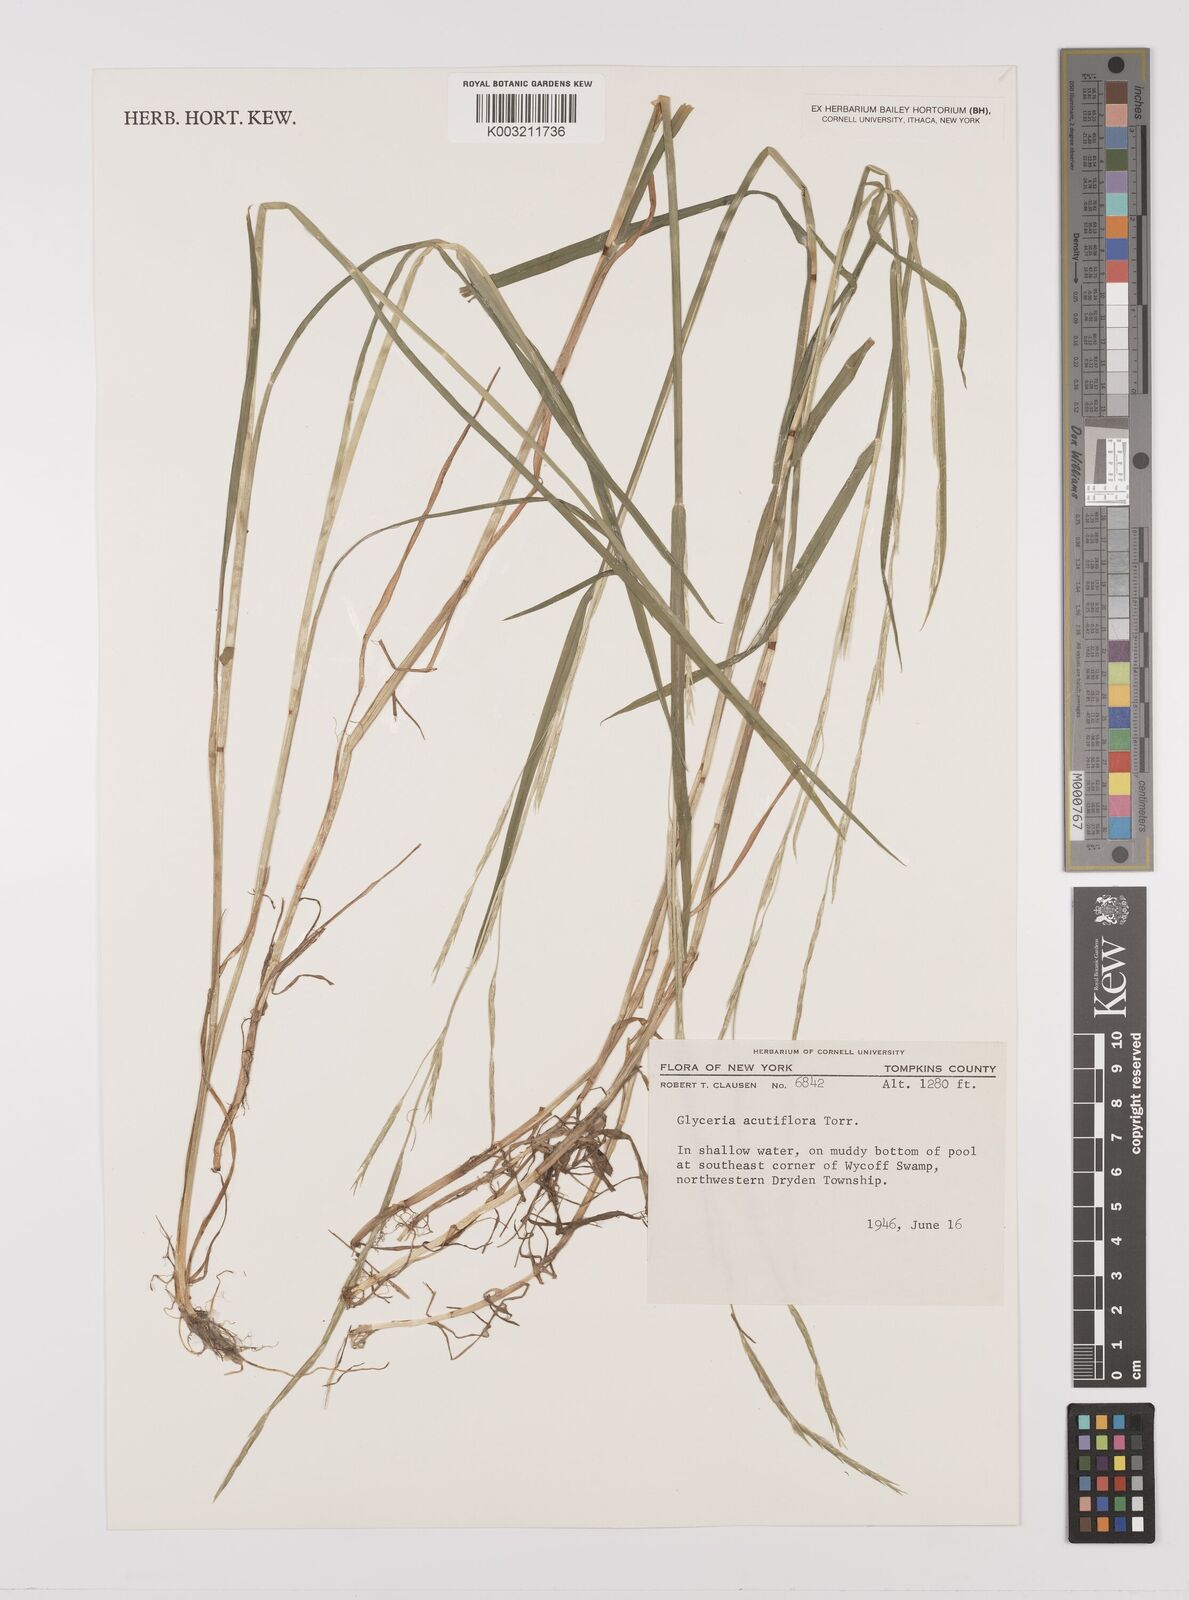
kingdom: Plantae
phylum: Tracheophyta
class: Liliopsida
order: Poales
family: Poaceae
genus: Glyceria
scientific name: Glyceria acutiflora
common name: Sharp-glumed manna-grass
